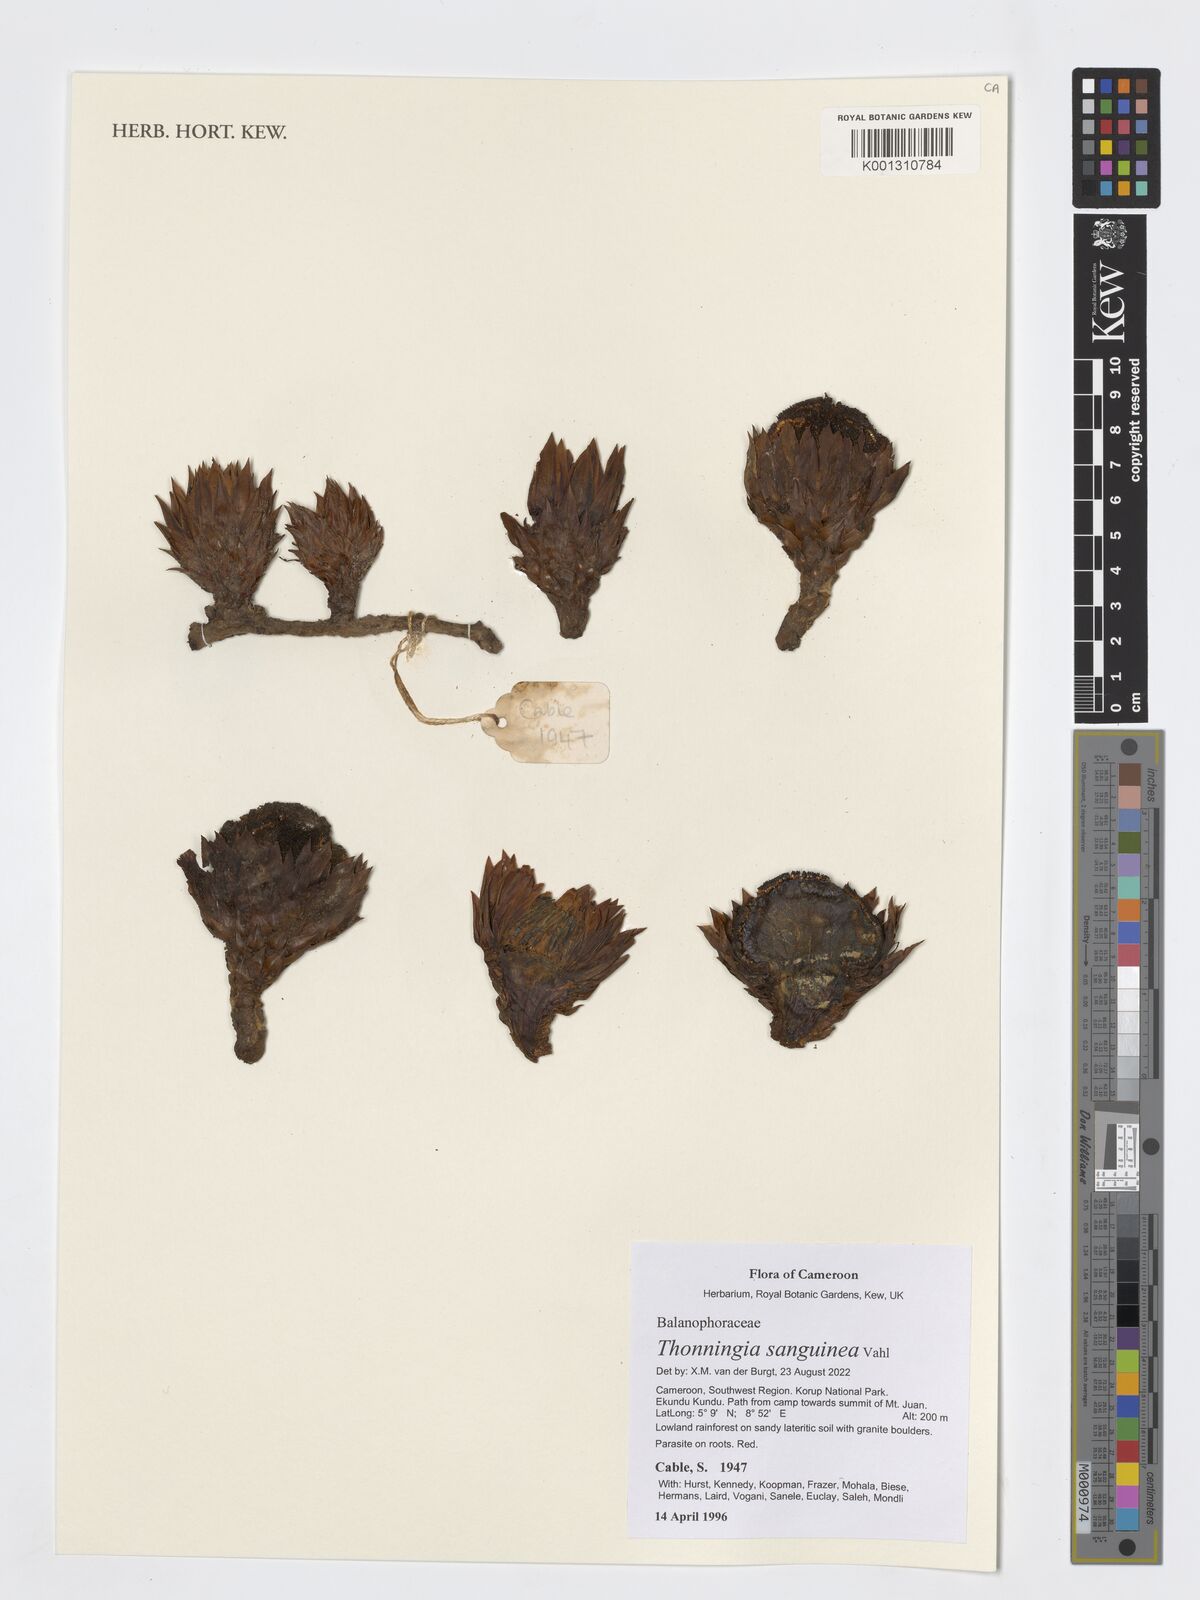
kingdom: Plantae
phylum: Tracheophyta
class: Magnoliopsida
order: Santalales
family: Balanophoraceae
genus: Thonningia
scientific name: Thonningia sanguinea
